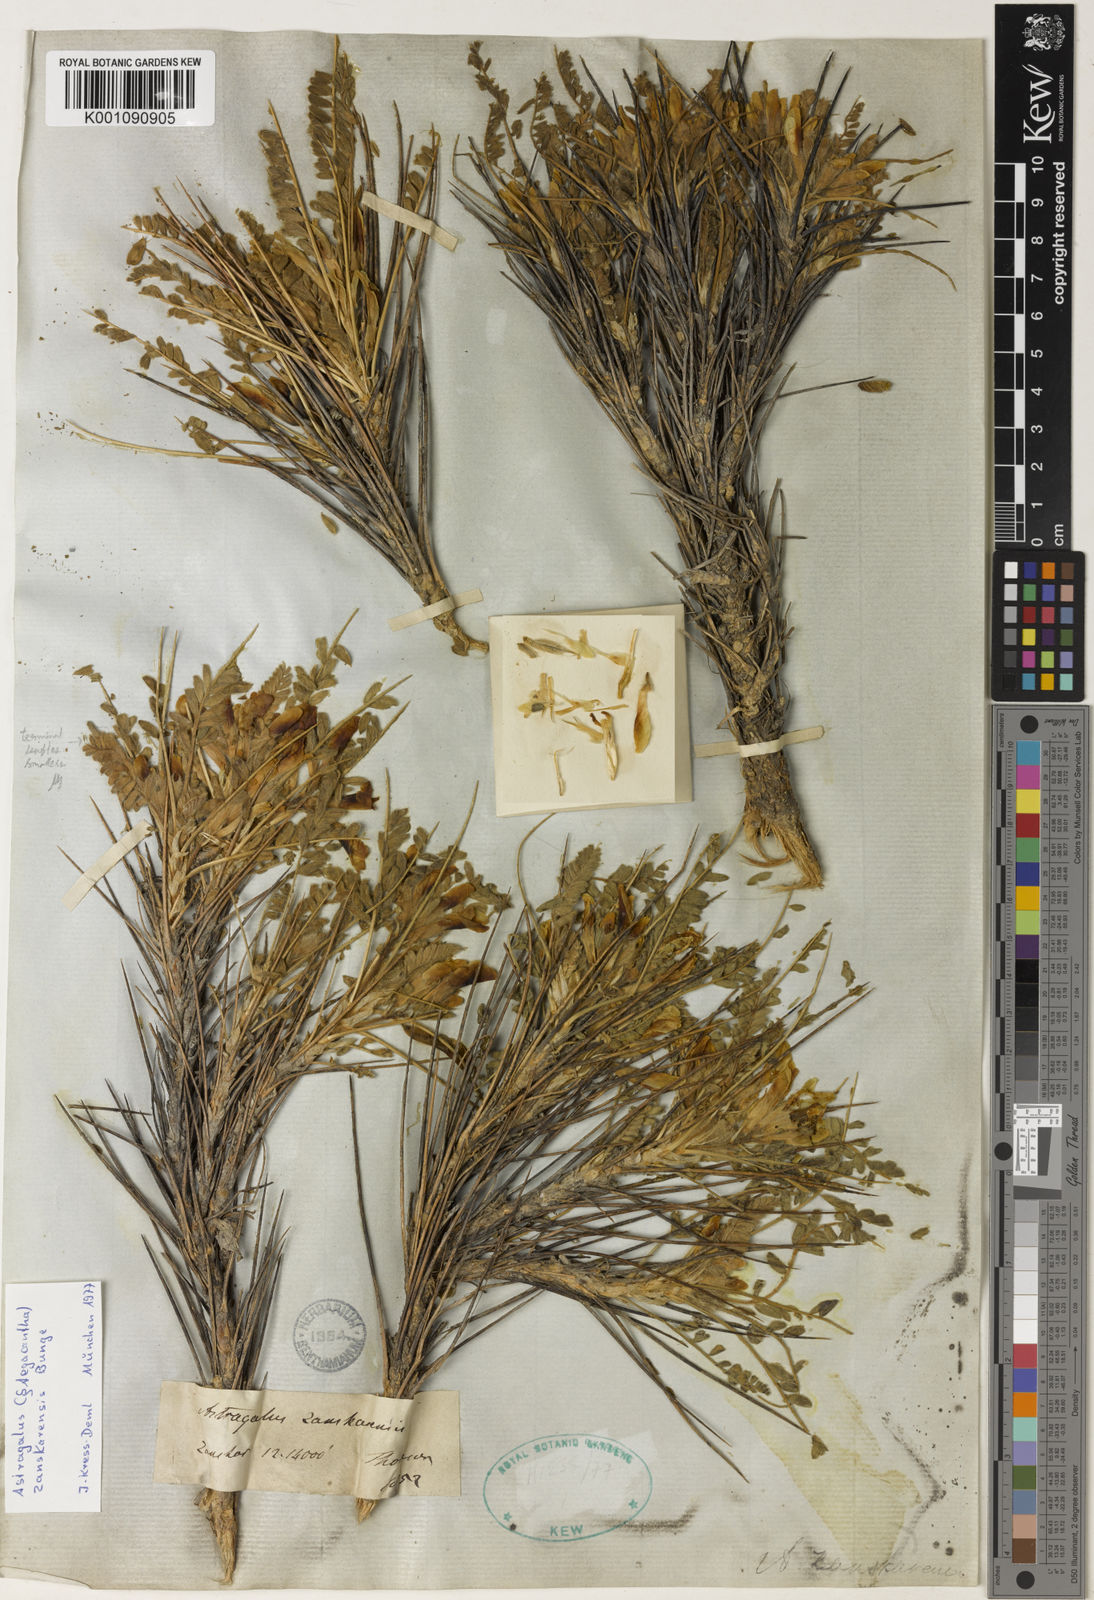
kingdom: Plantae
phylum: Tracheophyta
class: Magnoliopsida
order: Fabales
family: Fabaceae
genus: Astragalus
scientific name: Astragalus
